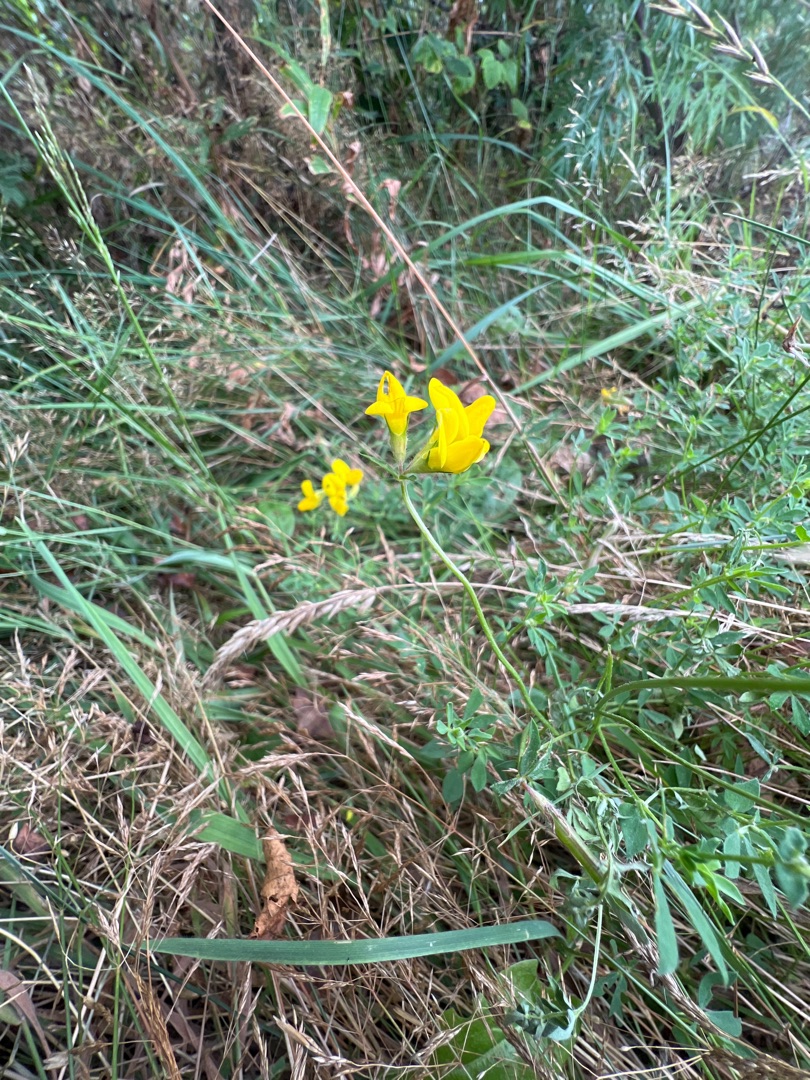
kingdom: Plantae
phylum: Tracheophyta
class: Magnoliopsida
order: Fabales
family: Fabaceae
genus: Lotus
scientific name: Lotus corniculatus
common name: Almindelig kællingetand
